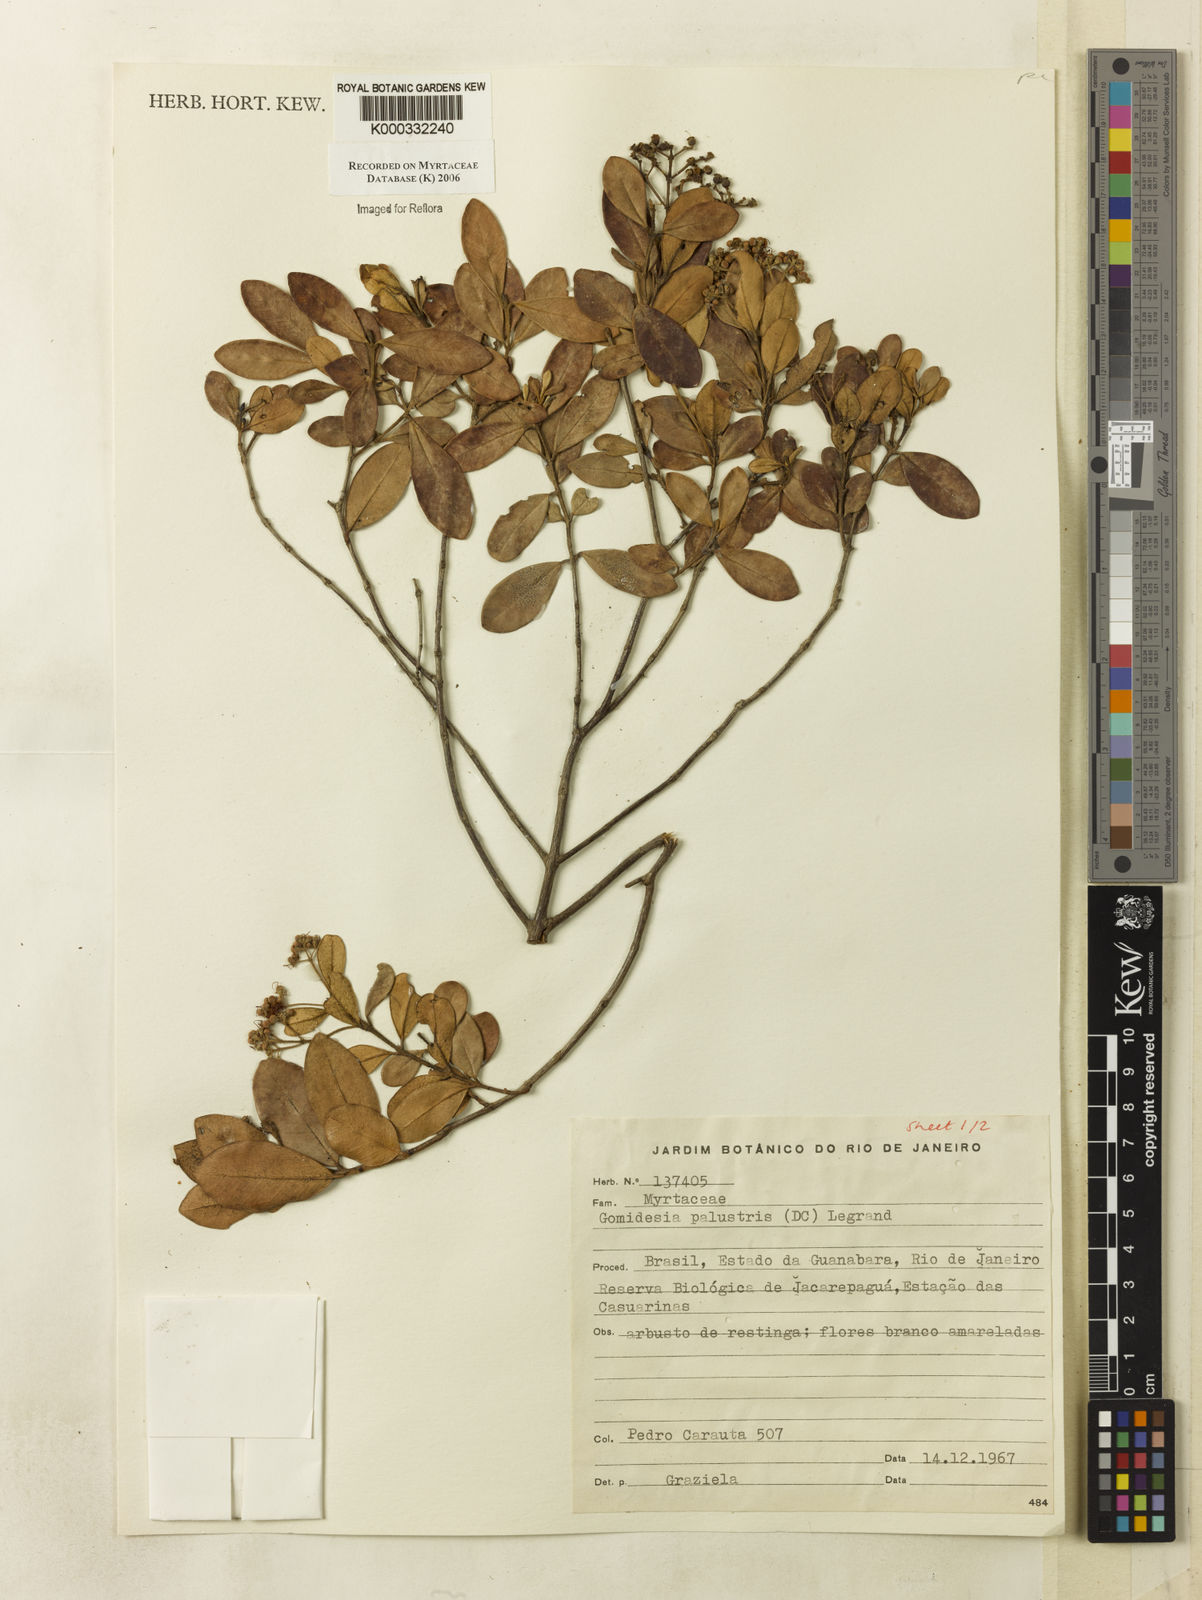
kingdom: Plantae
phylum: Tracheophyta
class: Magnoliopsida
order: Myrtales
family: Myrtaceae
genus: Myrcia
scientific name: Myrcia palustris
